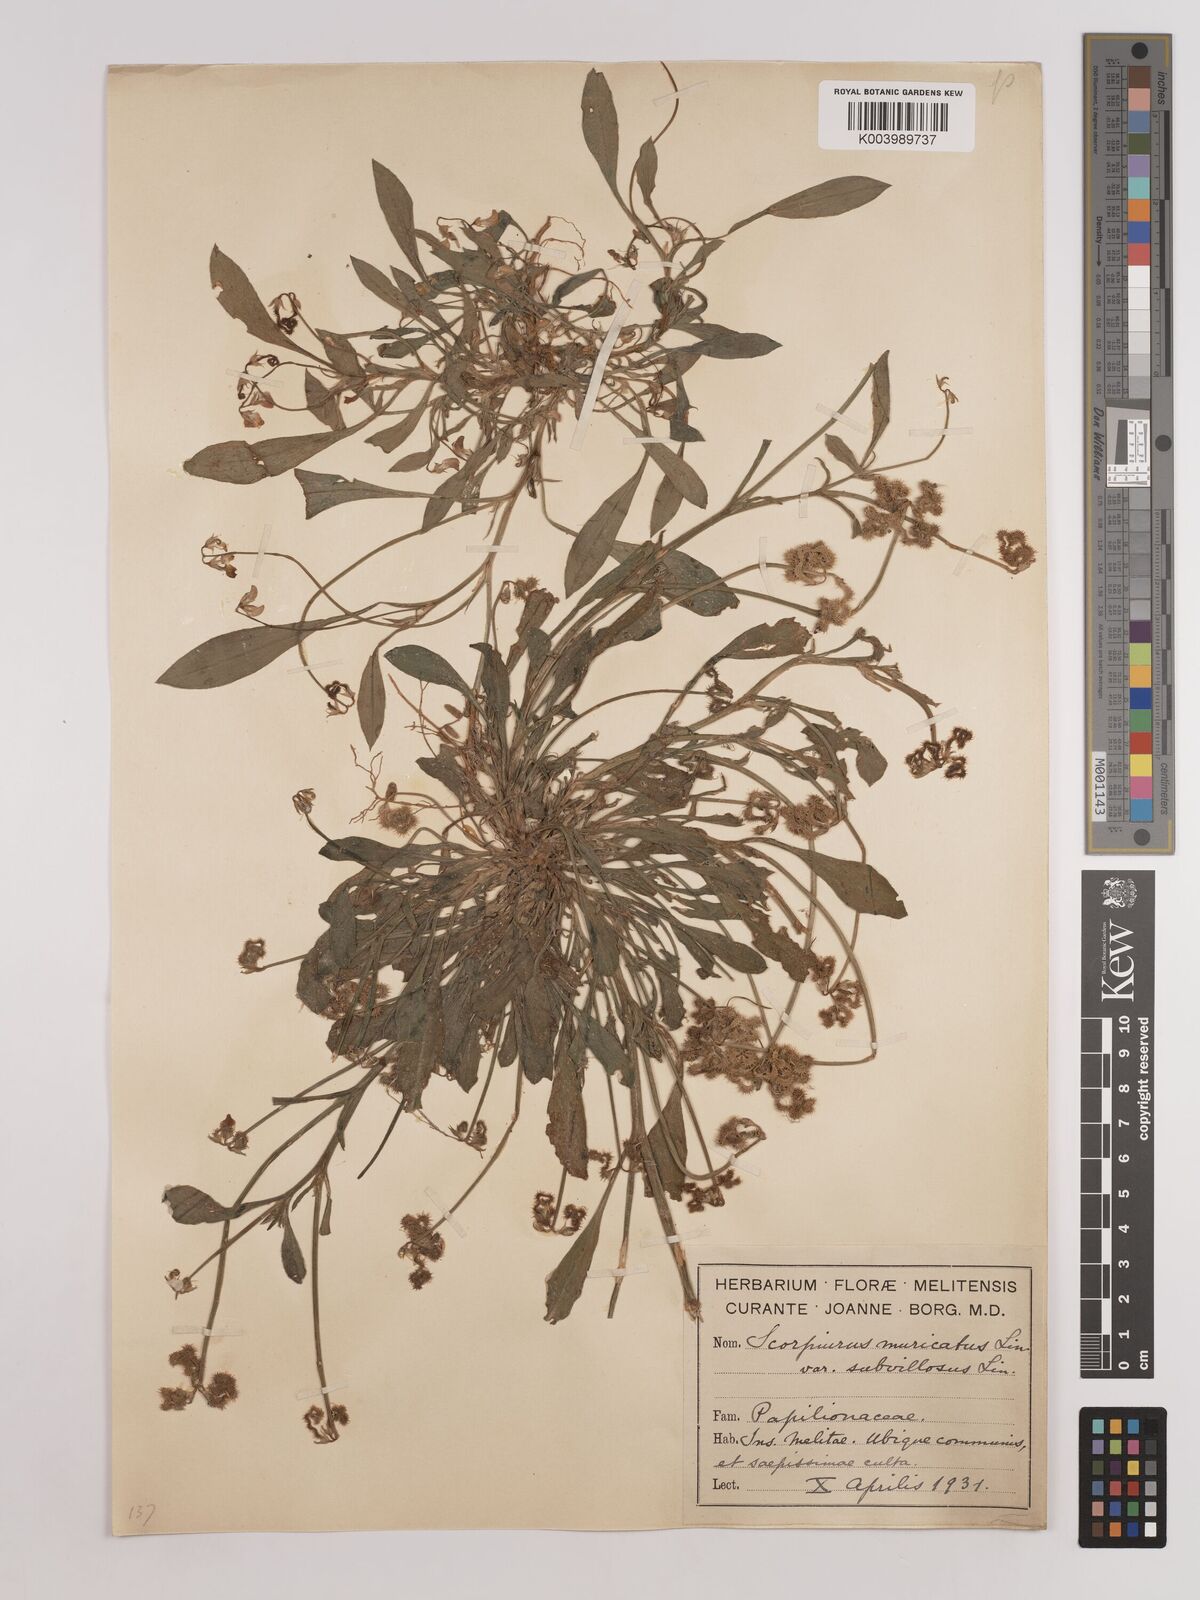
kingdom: Plantae
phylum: Tracheophyta
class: Magnoliopsida
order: Fabales
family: Fabaceae
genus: Scorpiurus
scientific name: Scorpiurus muricatus
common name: Caterpillar-plant
